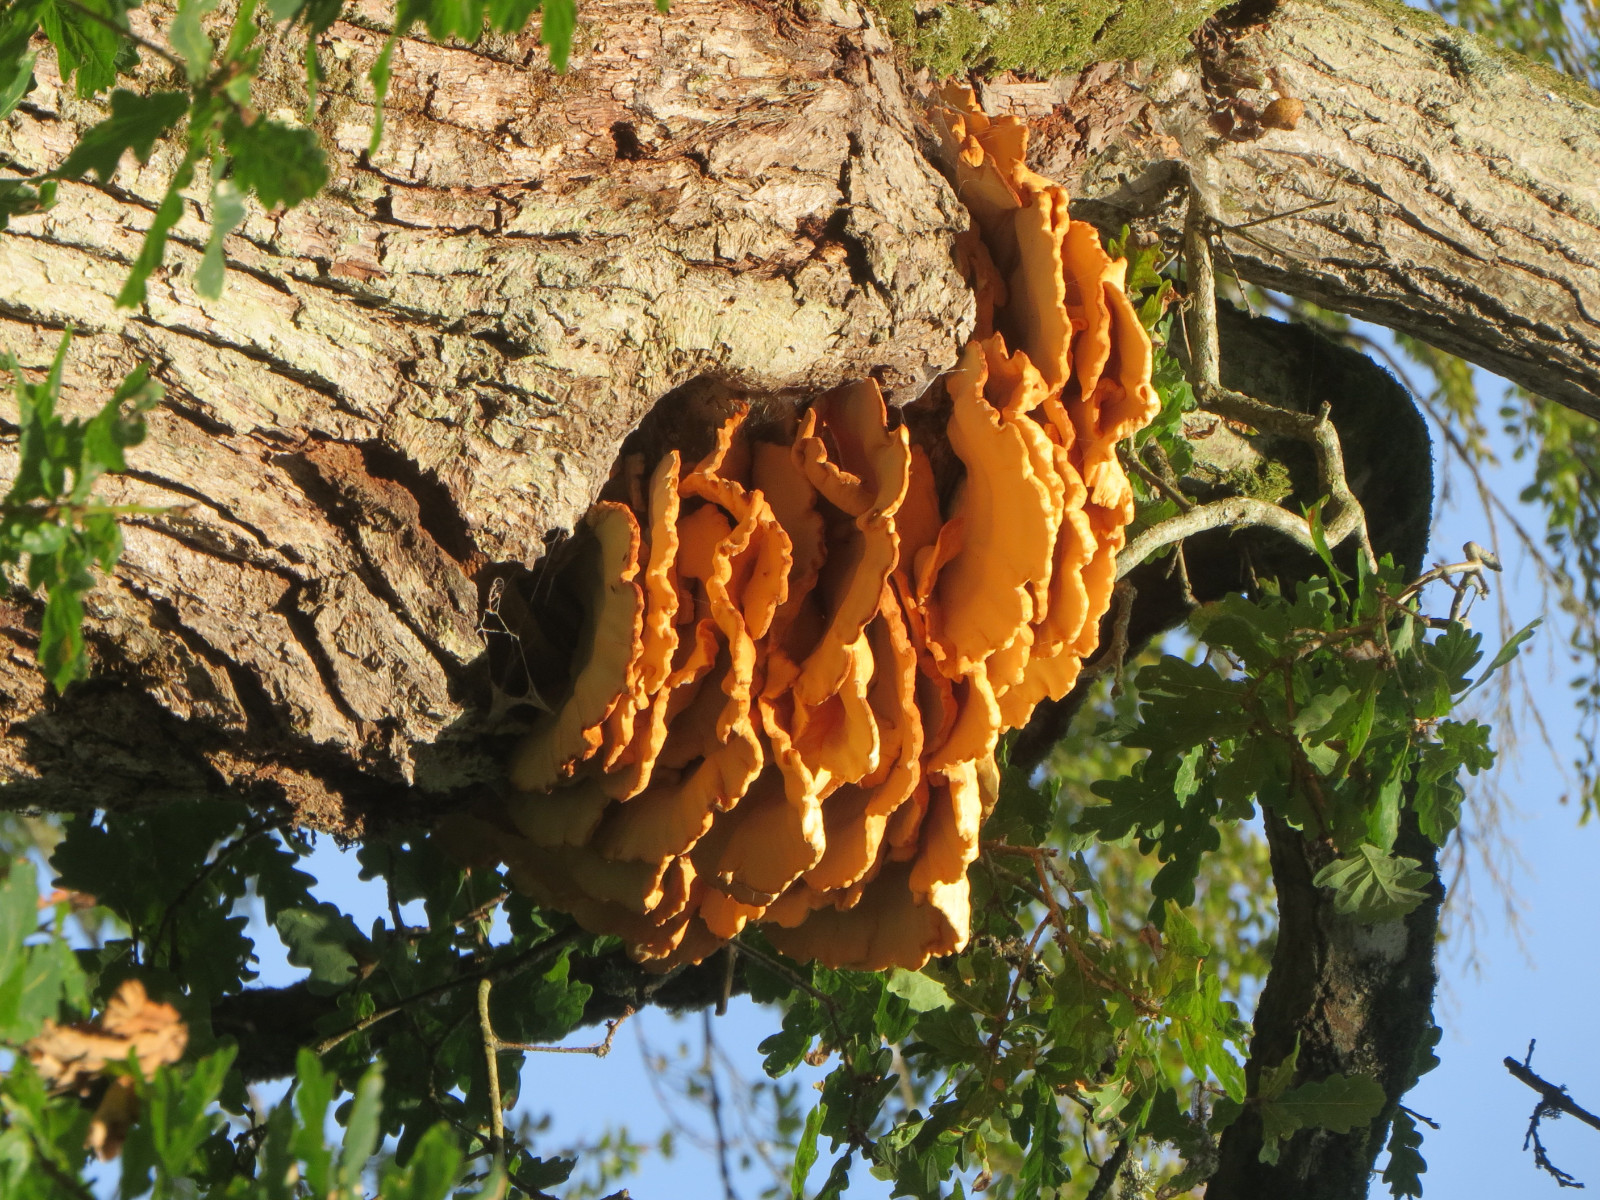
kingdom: Fungi
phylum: Basidiomycota
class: Agaricomycetes
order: Polyporales
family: Laetiporaceae
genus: Laetiporus
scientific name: Laetiporus sulphureus
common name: svovlporesvamp
